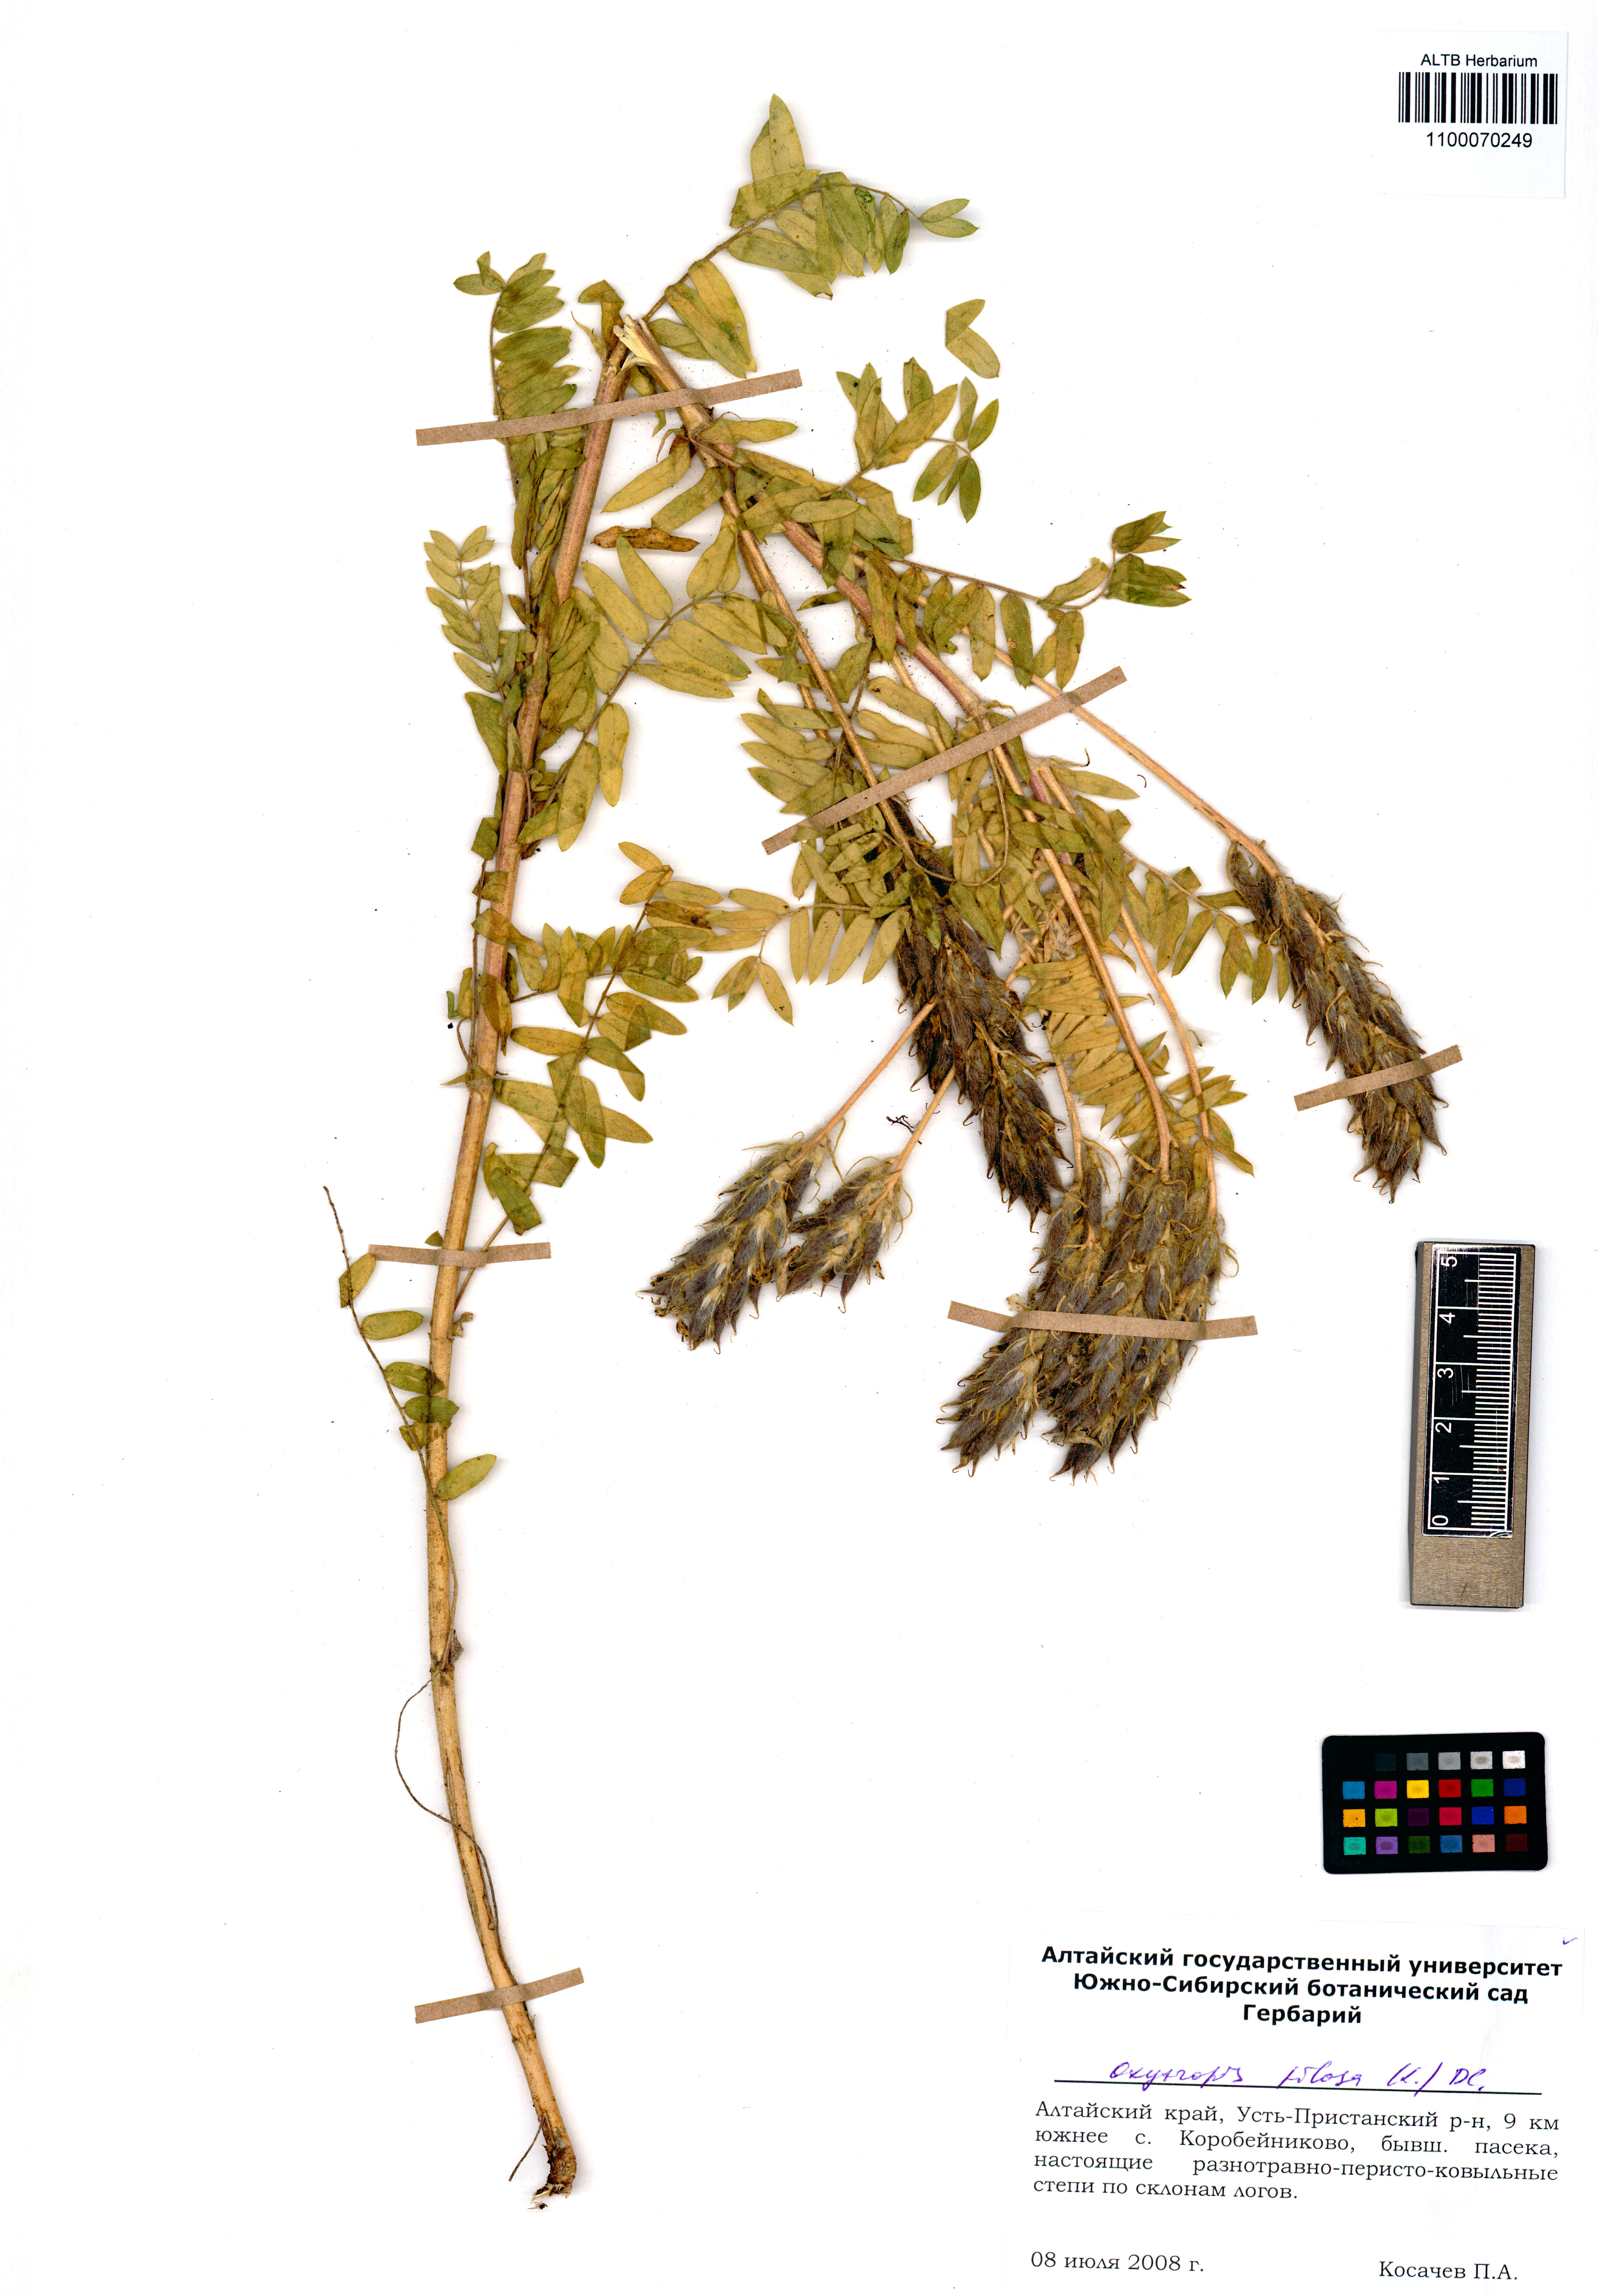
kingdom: Plantae
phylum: Tracheophyta
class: Magnoliopsida
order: Fabales
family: Fabaceae
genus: Oxytropis
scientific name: Oxytropis pilosa
